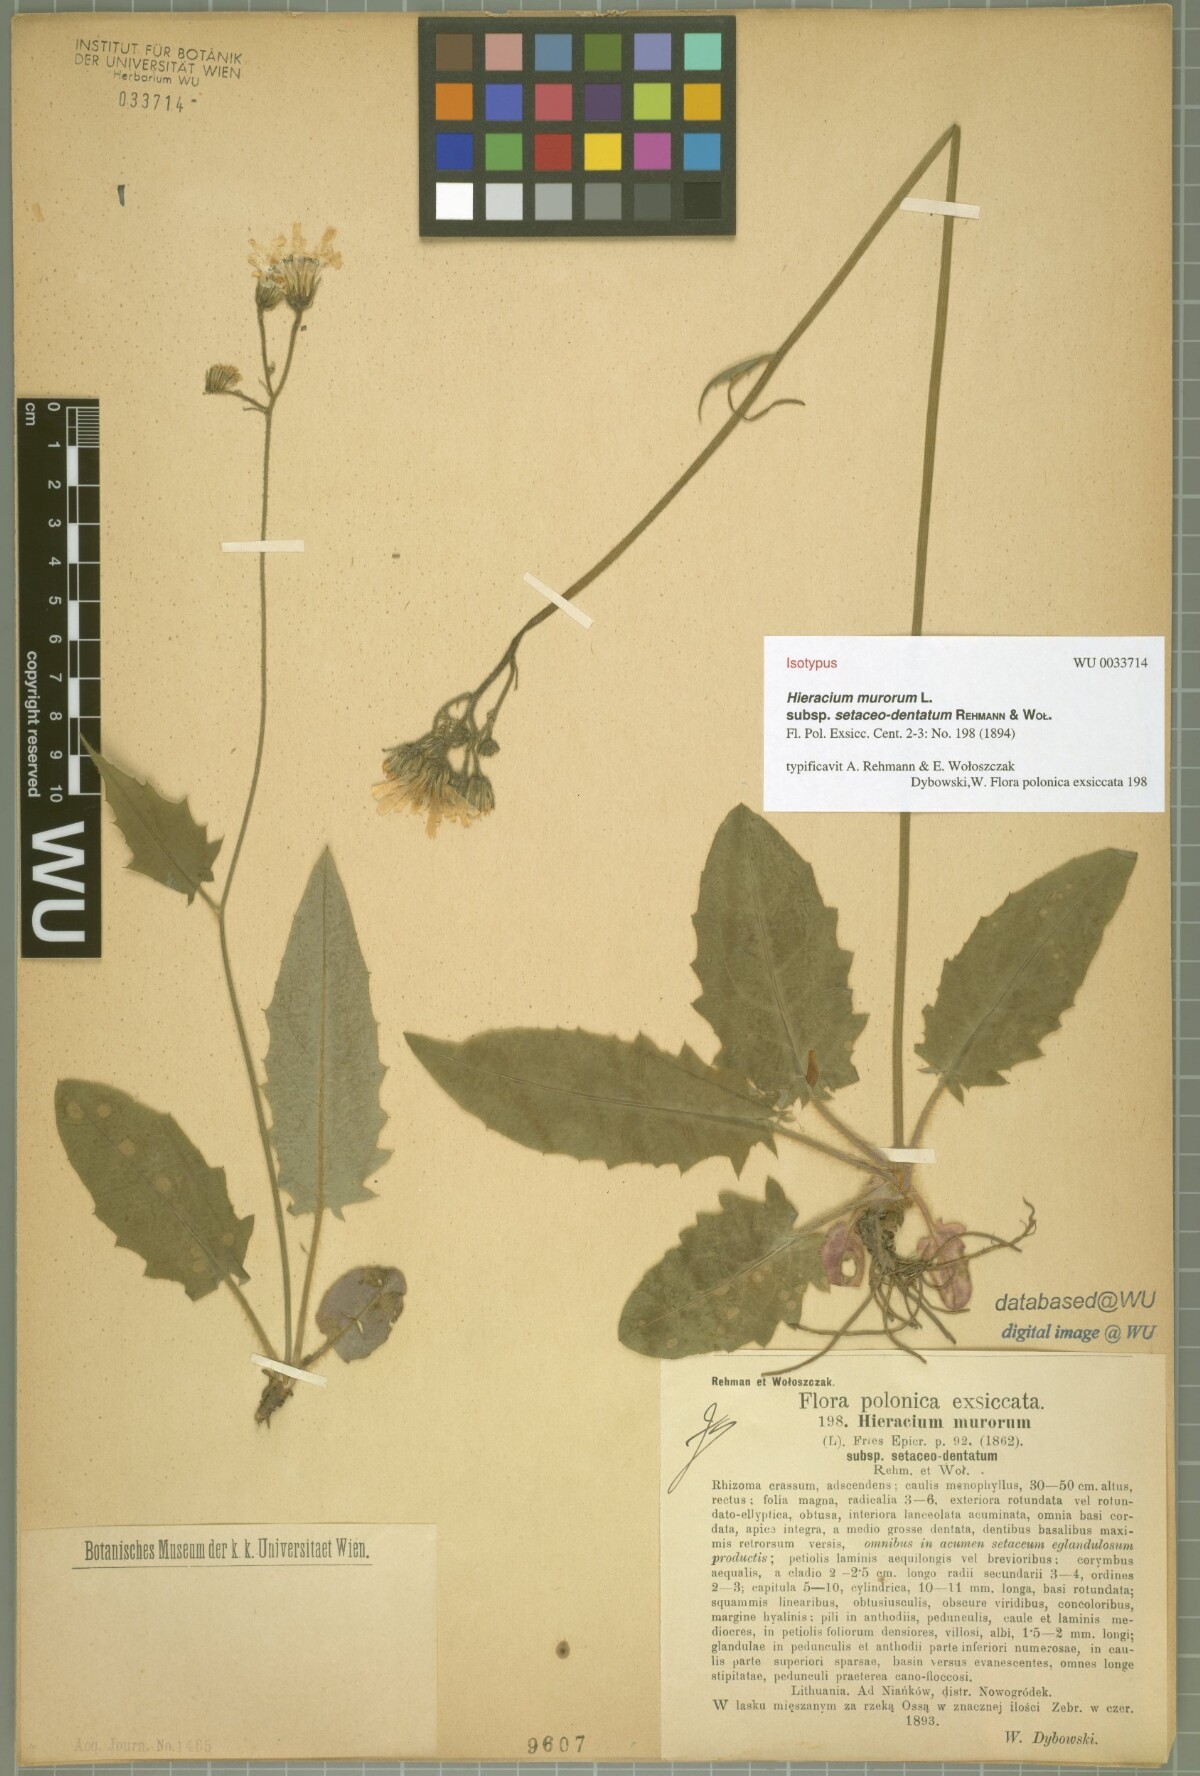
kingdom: Plantae
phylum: Tracheophyta
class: Magnoliopsida
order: Asterales
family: Asteraceae
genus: Hieracium
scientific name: Hieracium murorum
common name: Wall hawkweed
